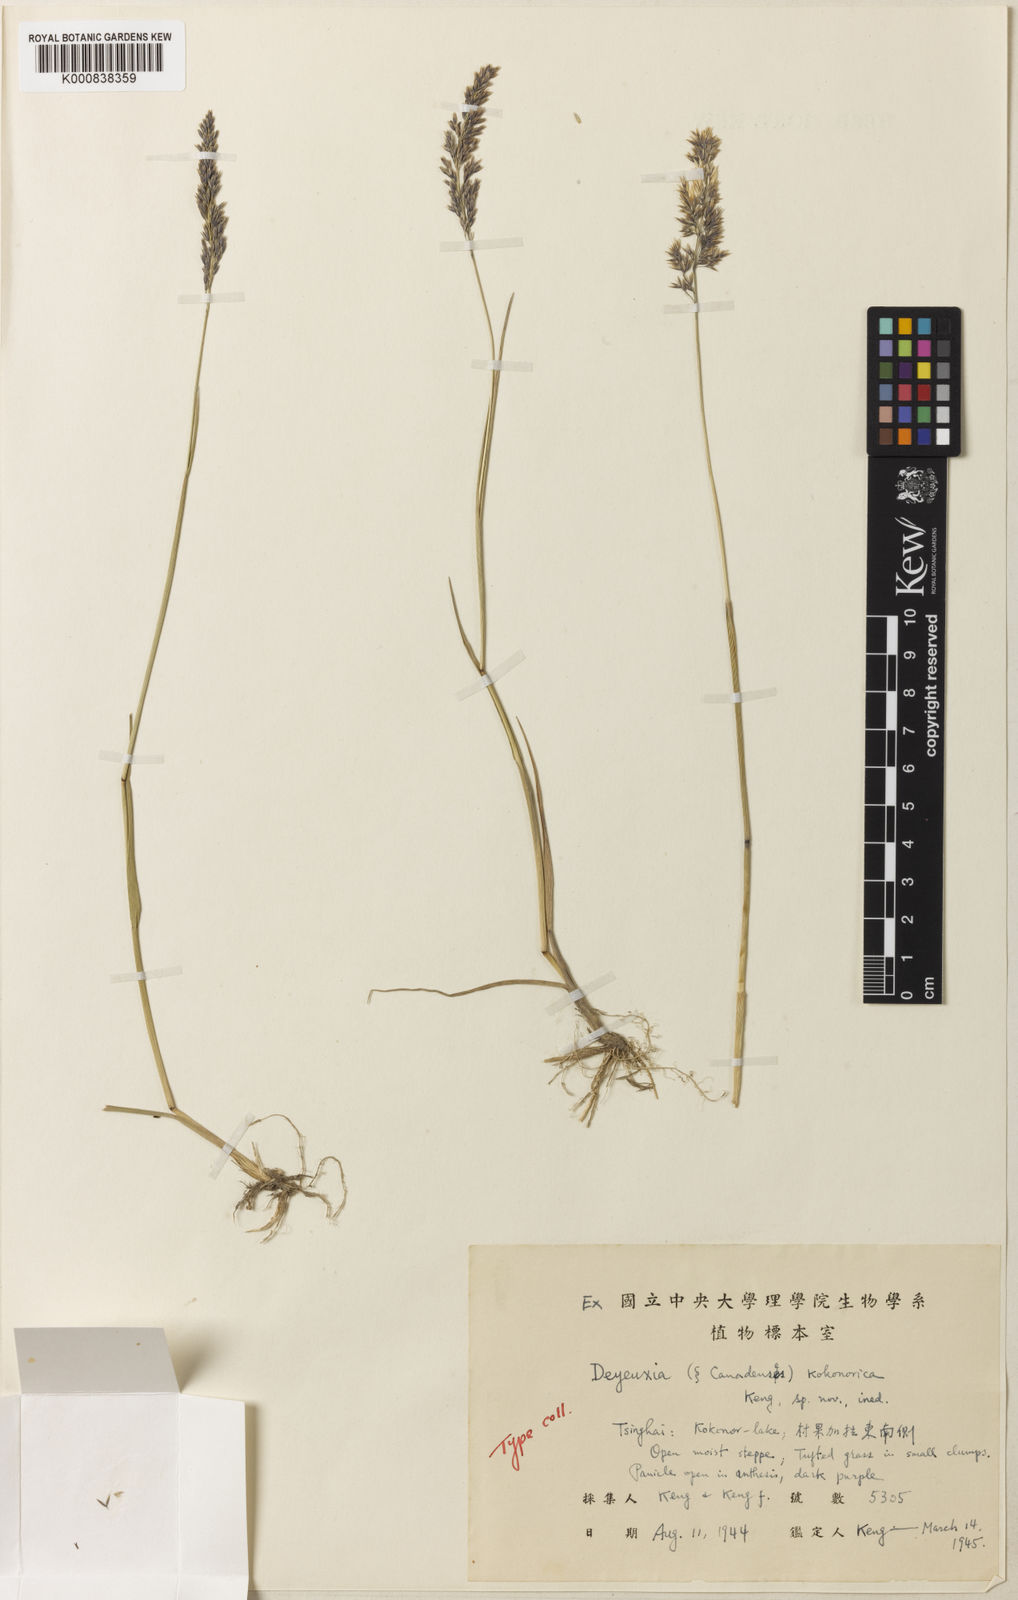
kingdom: Plantae
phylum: Tracheophyta
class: Liliopsida
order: Poales
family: Poaceae
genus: Calamagrostis
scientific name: Calamagrostis kokonorica
